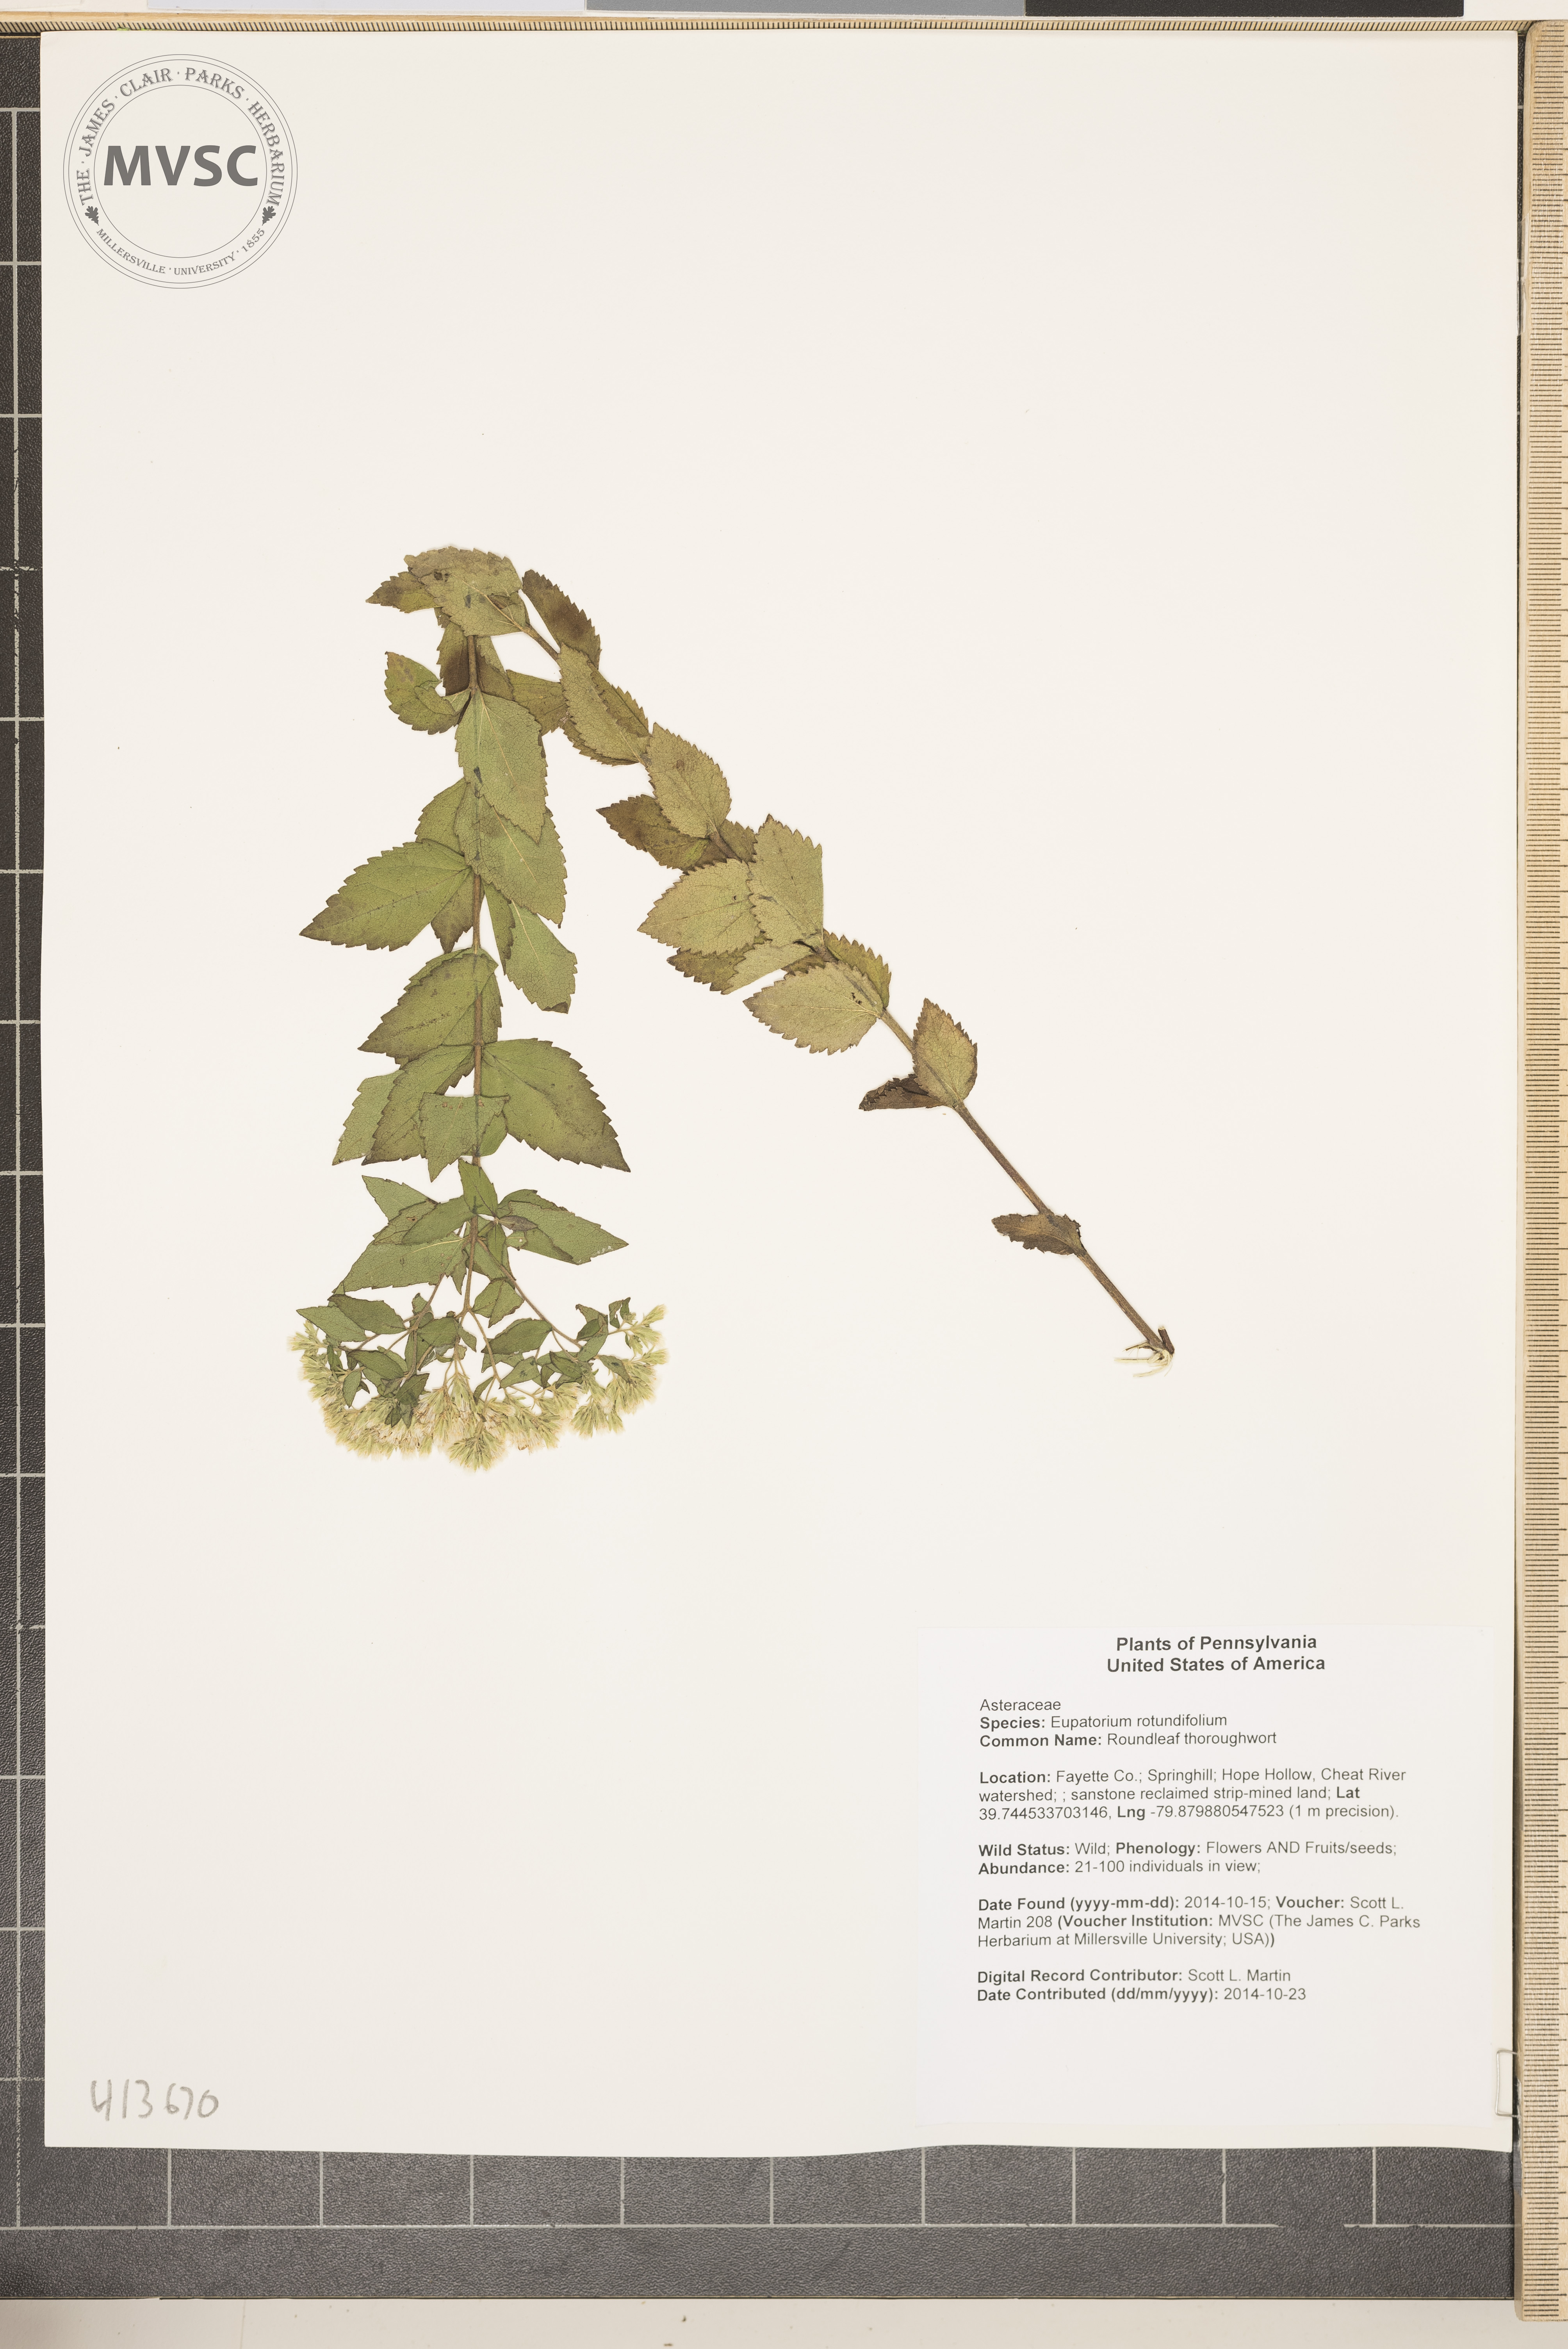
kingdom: Plantae
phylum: Tracheophyta
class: Magnoliopsida
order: Asterales
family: Asteraceae
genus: Eupatorium
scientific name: Eupatorium rotundifolium
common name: Roundleaf thoroughwort
